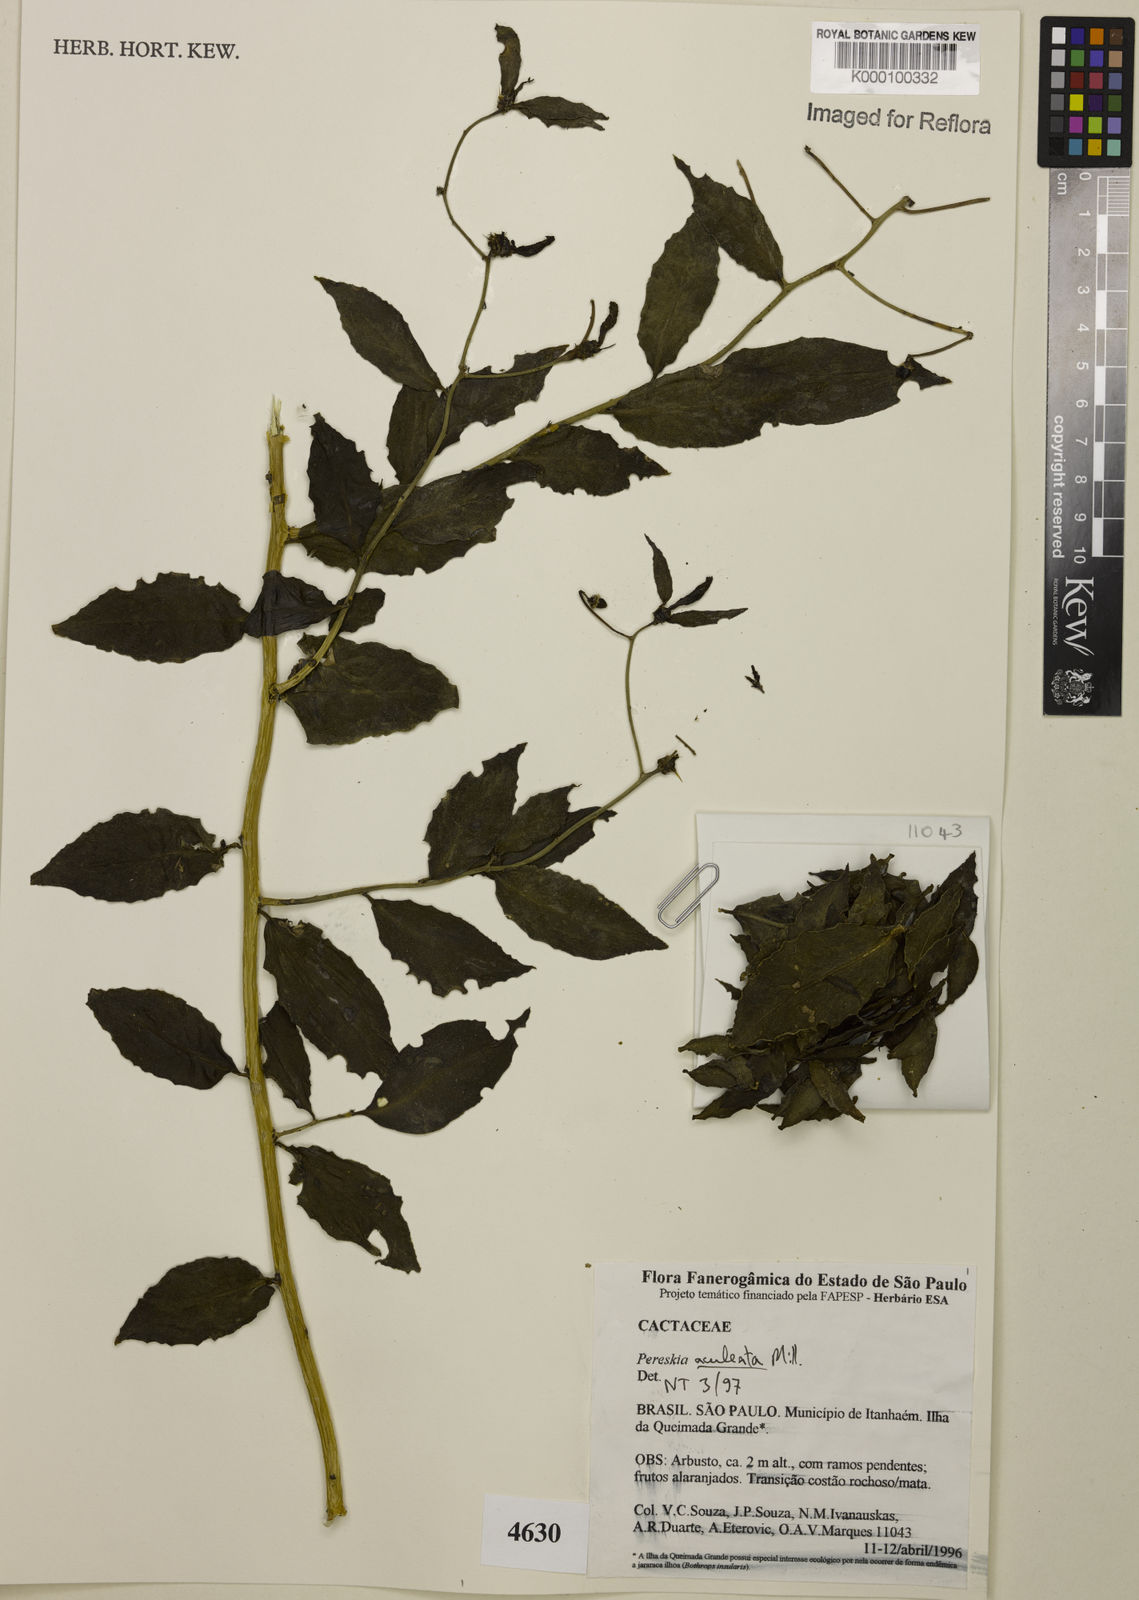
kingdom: Plantae
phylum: Tracheophyta
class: Magnoliopsida
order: Caryophyllales
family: Cactaceae
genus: Pereskia
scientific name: Pereskia aculeata
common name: Barbados gooseberry
